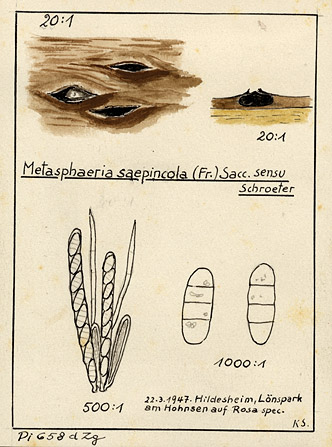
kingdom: Fungi
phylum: Ascomycota
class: Dothideomycetes
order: Dothideales
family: Saccotheciaceae
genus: Saccothecium
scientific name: Saccothecium sepincola
